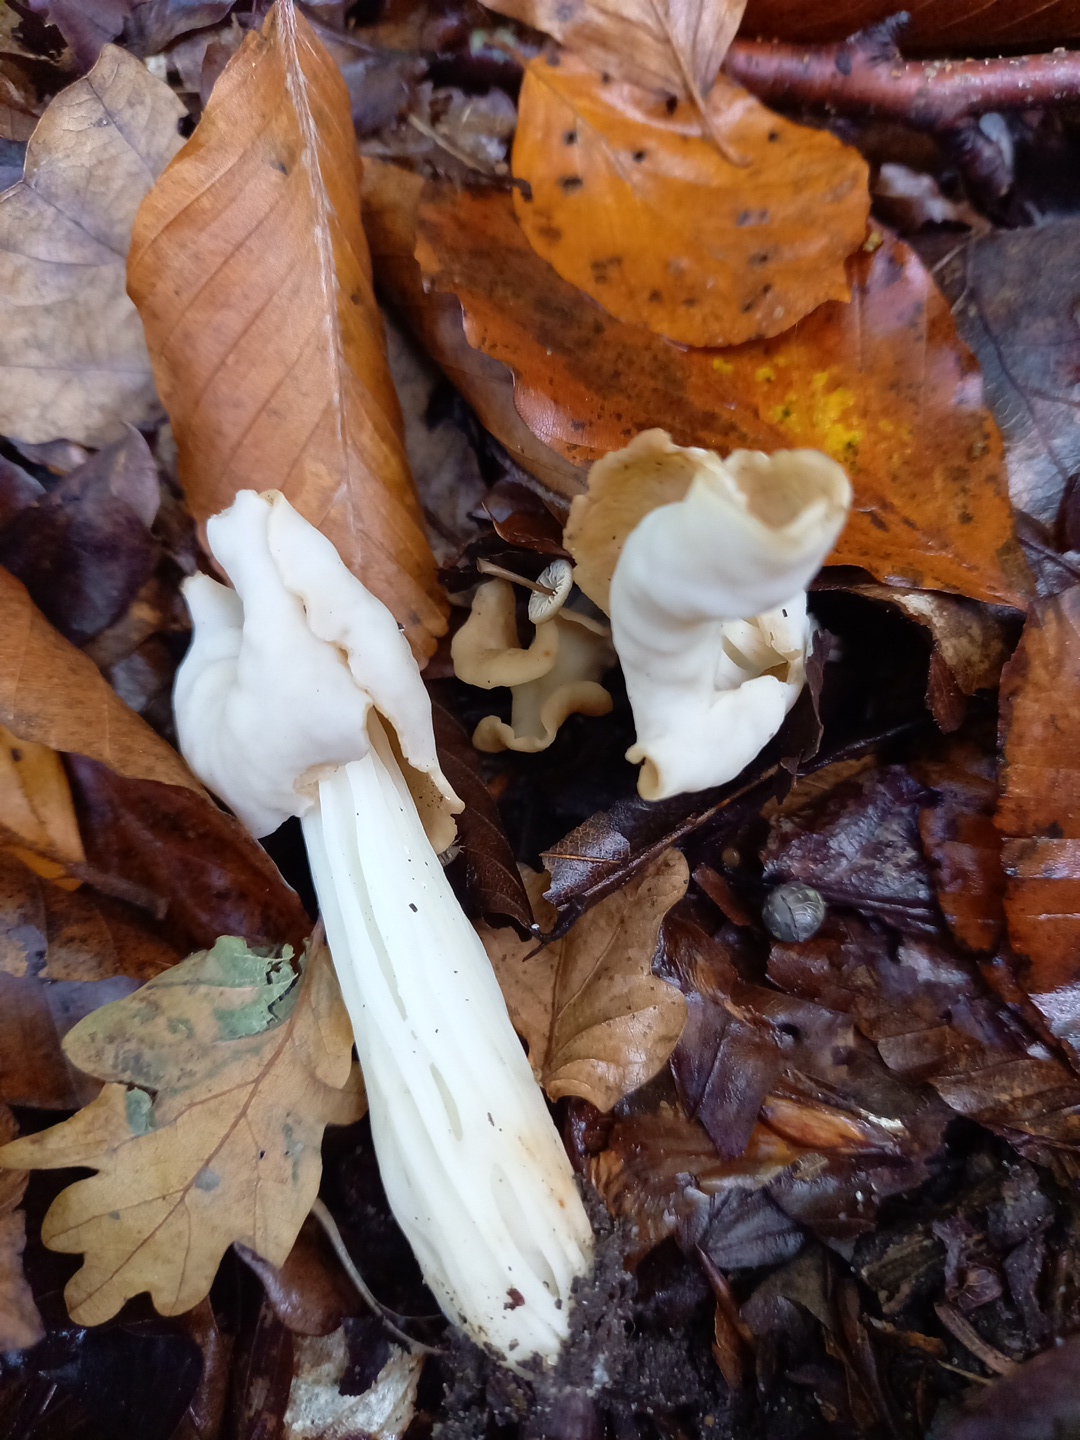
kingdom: Fungi
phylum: Ascomycota
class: Pezizomycetes
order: Pezizales
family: Helvellaceae
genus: Helvella
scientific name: Helvella crispa
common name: kruset foldhat
